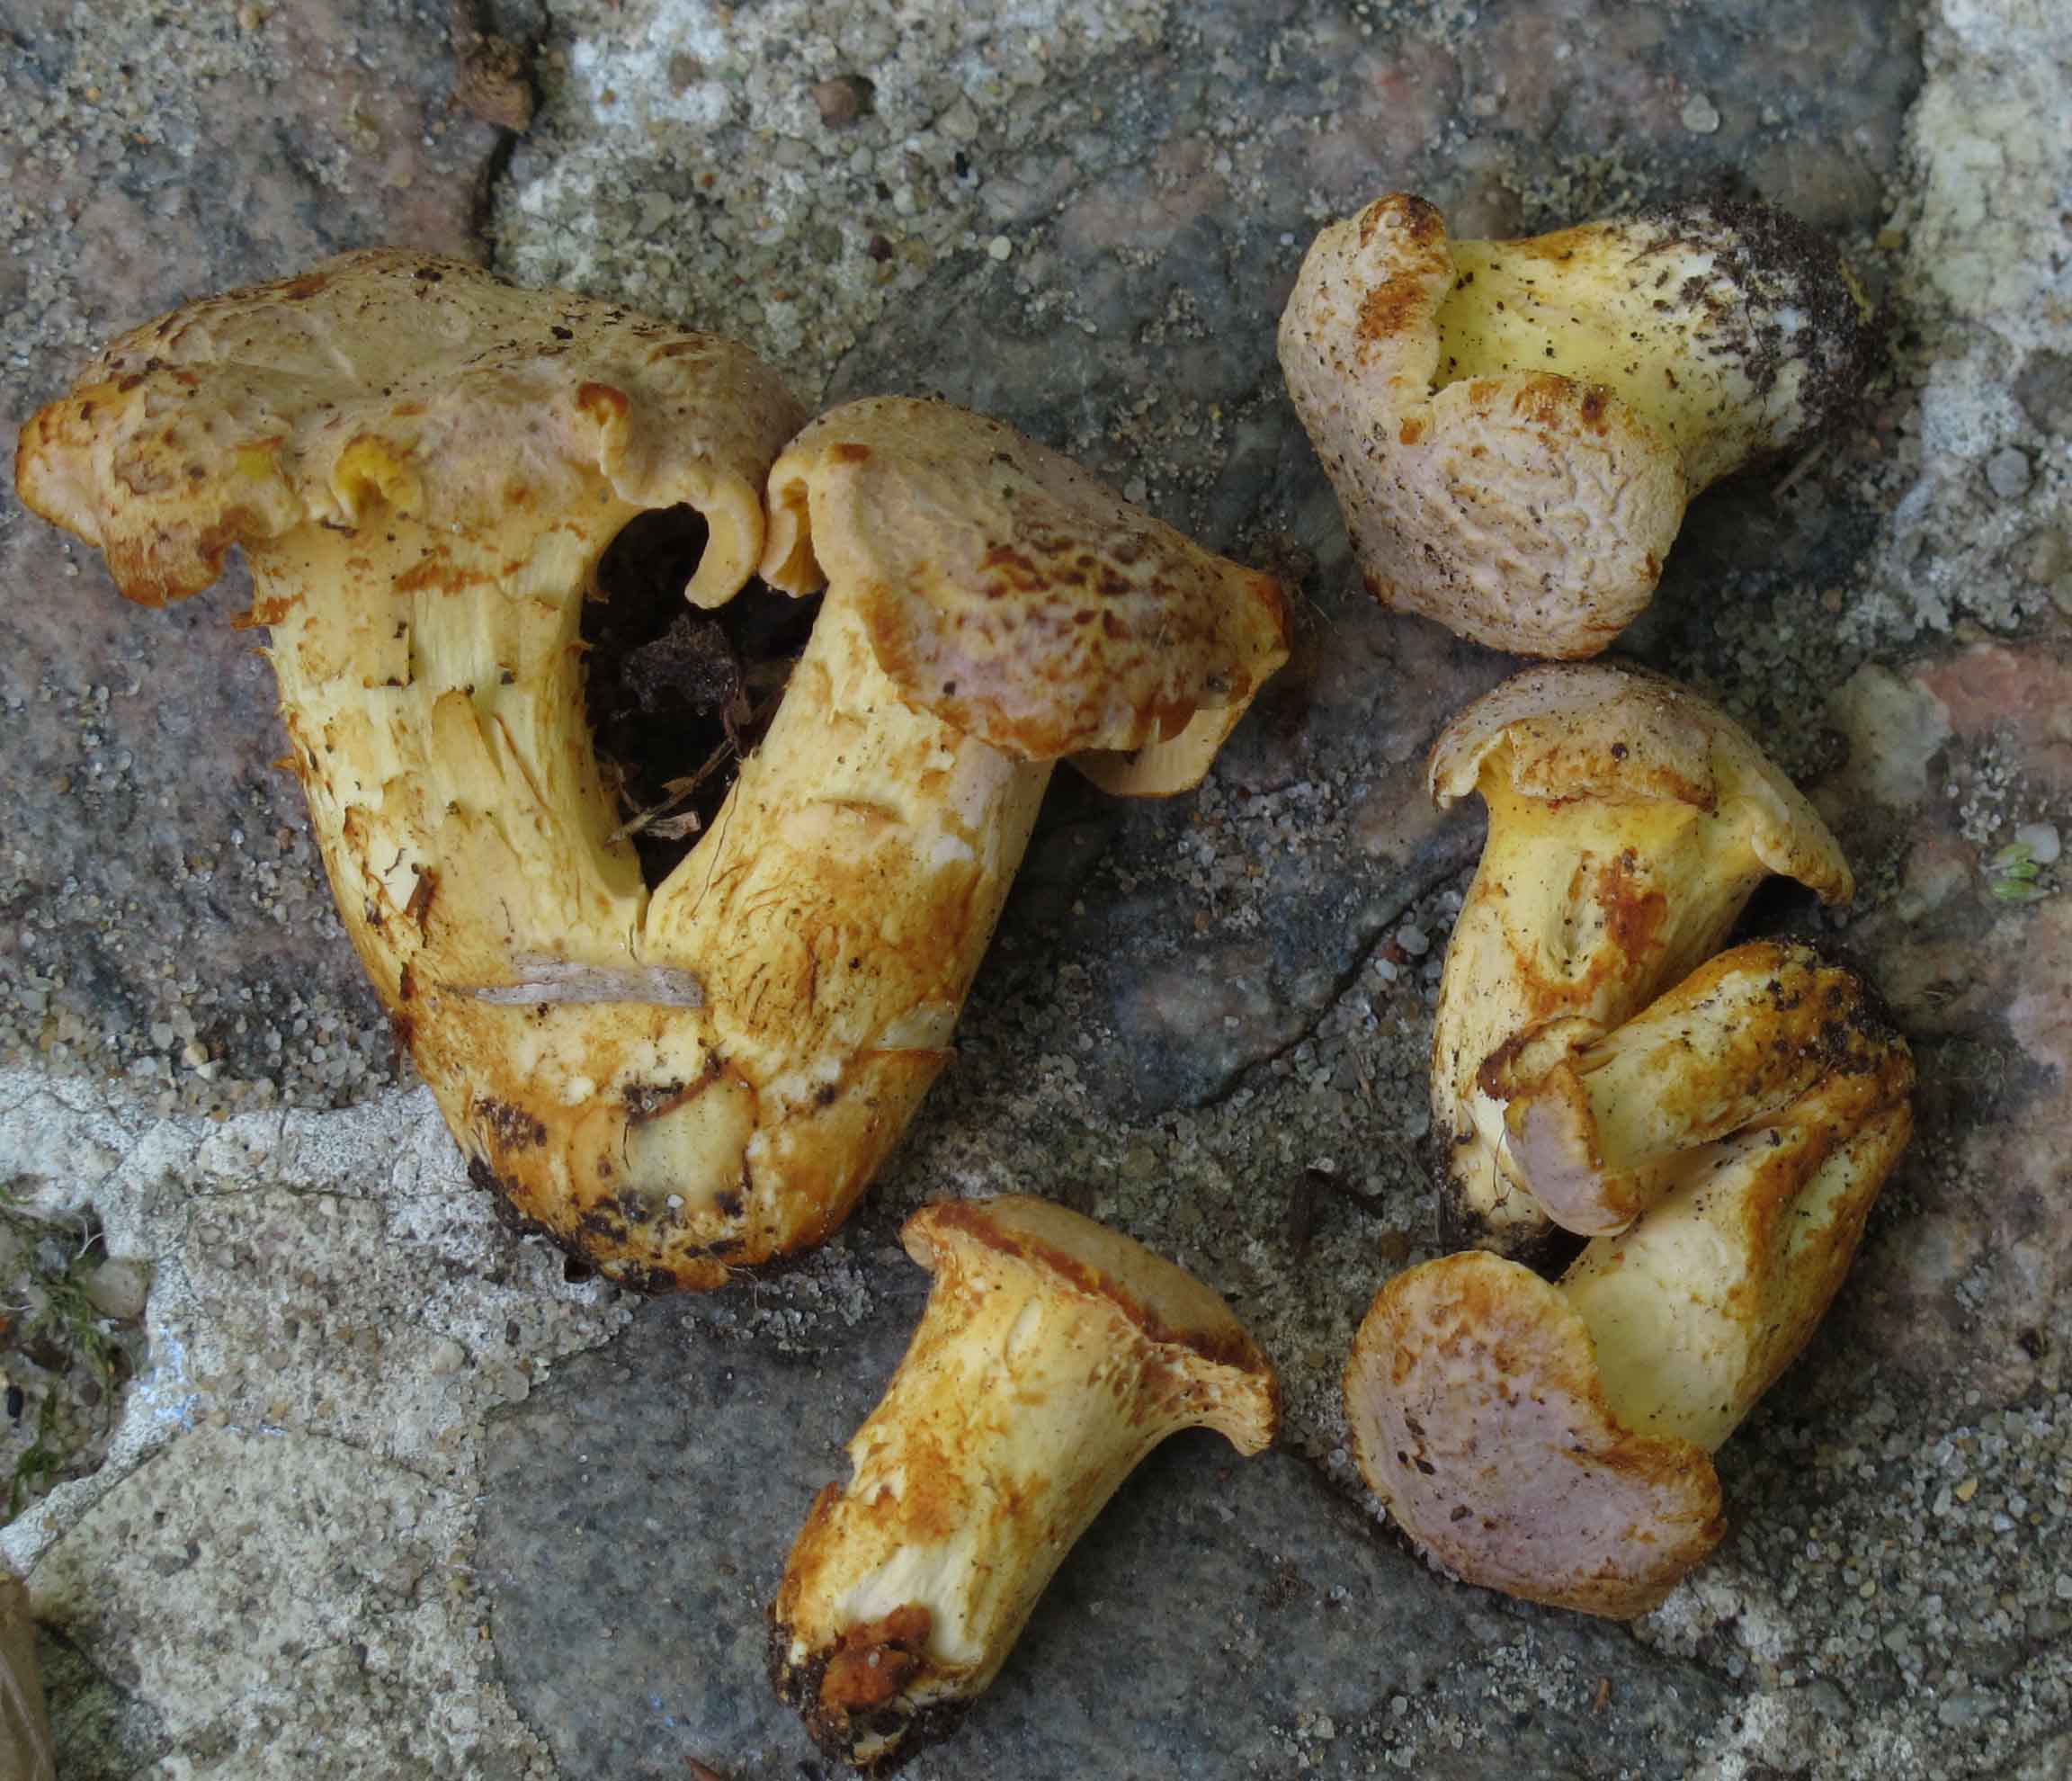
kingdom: Fungi
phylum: Basidiomycota
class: Agaricomycetes
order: Cantharellales
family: Hydnaceae
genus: Cantharellus
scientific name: Cantharellus amethysteus
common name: ametyst-kantarel
